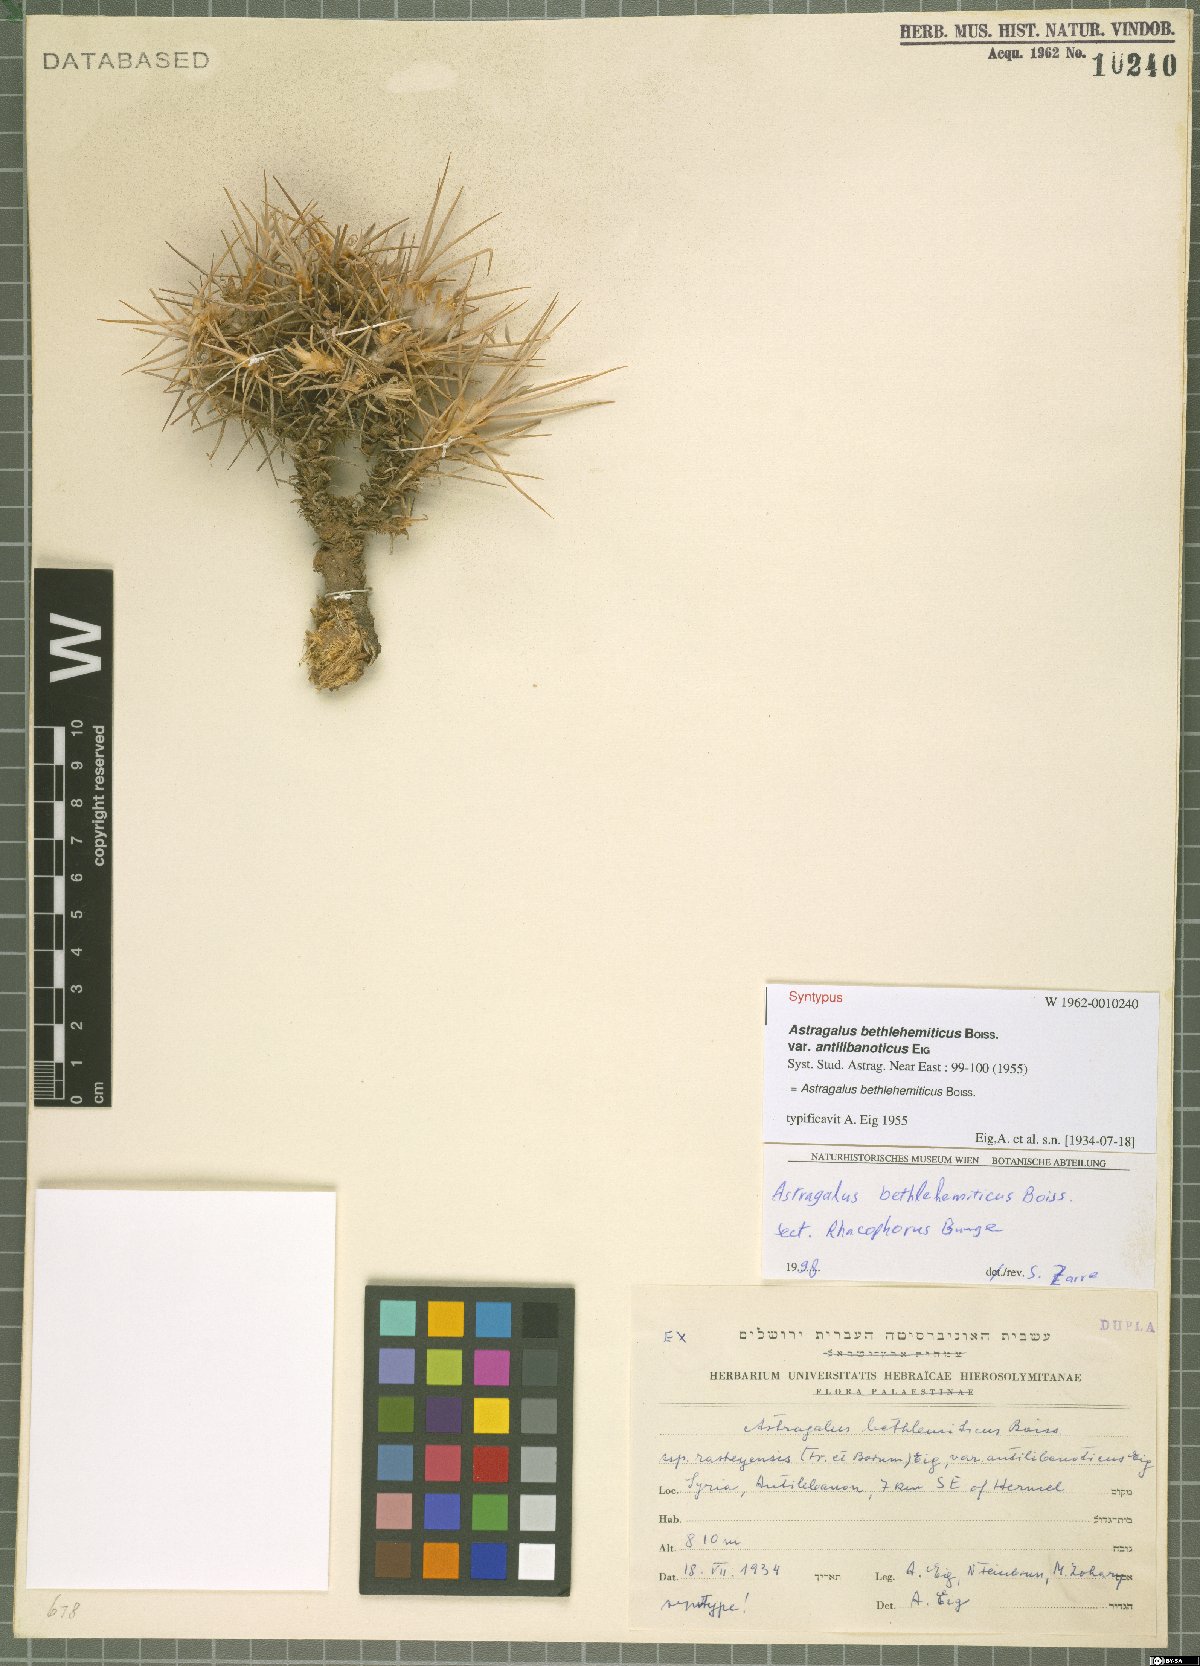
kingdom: Plantae
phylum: Tracheophyta
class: Magnoliopsida
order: Fabales
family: Fabaceae
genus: Astragalus
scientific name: Astragalus bethlehemiticus
